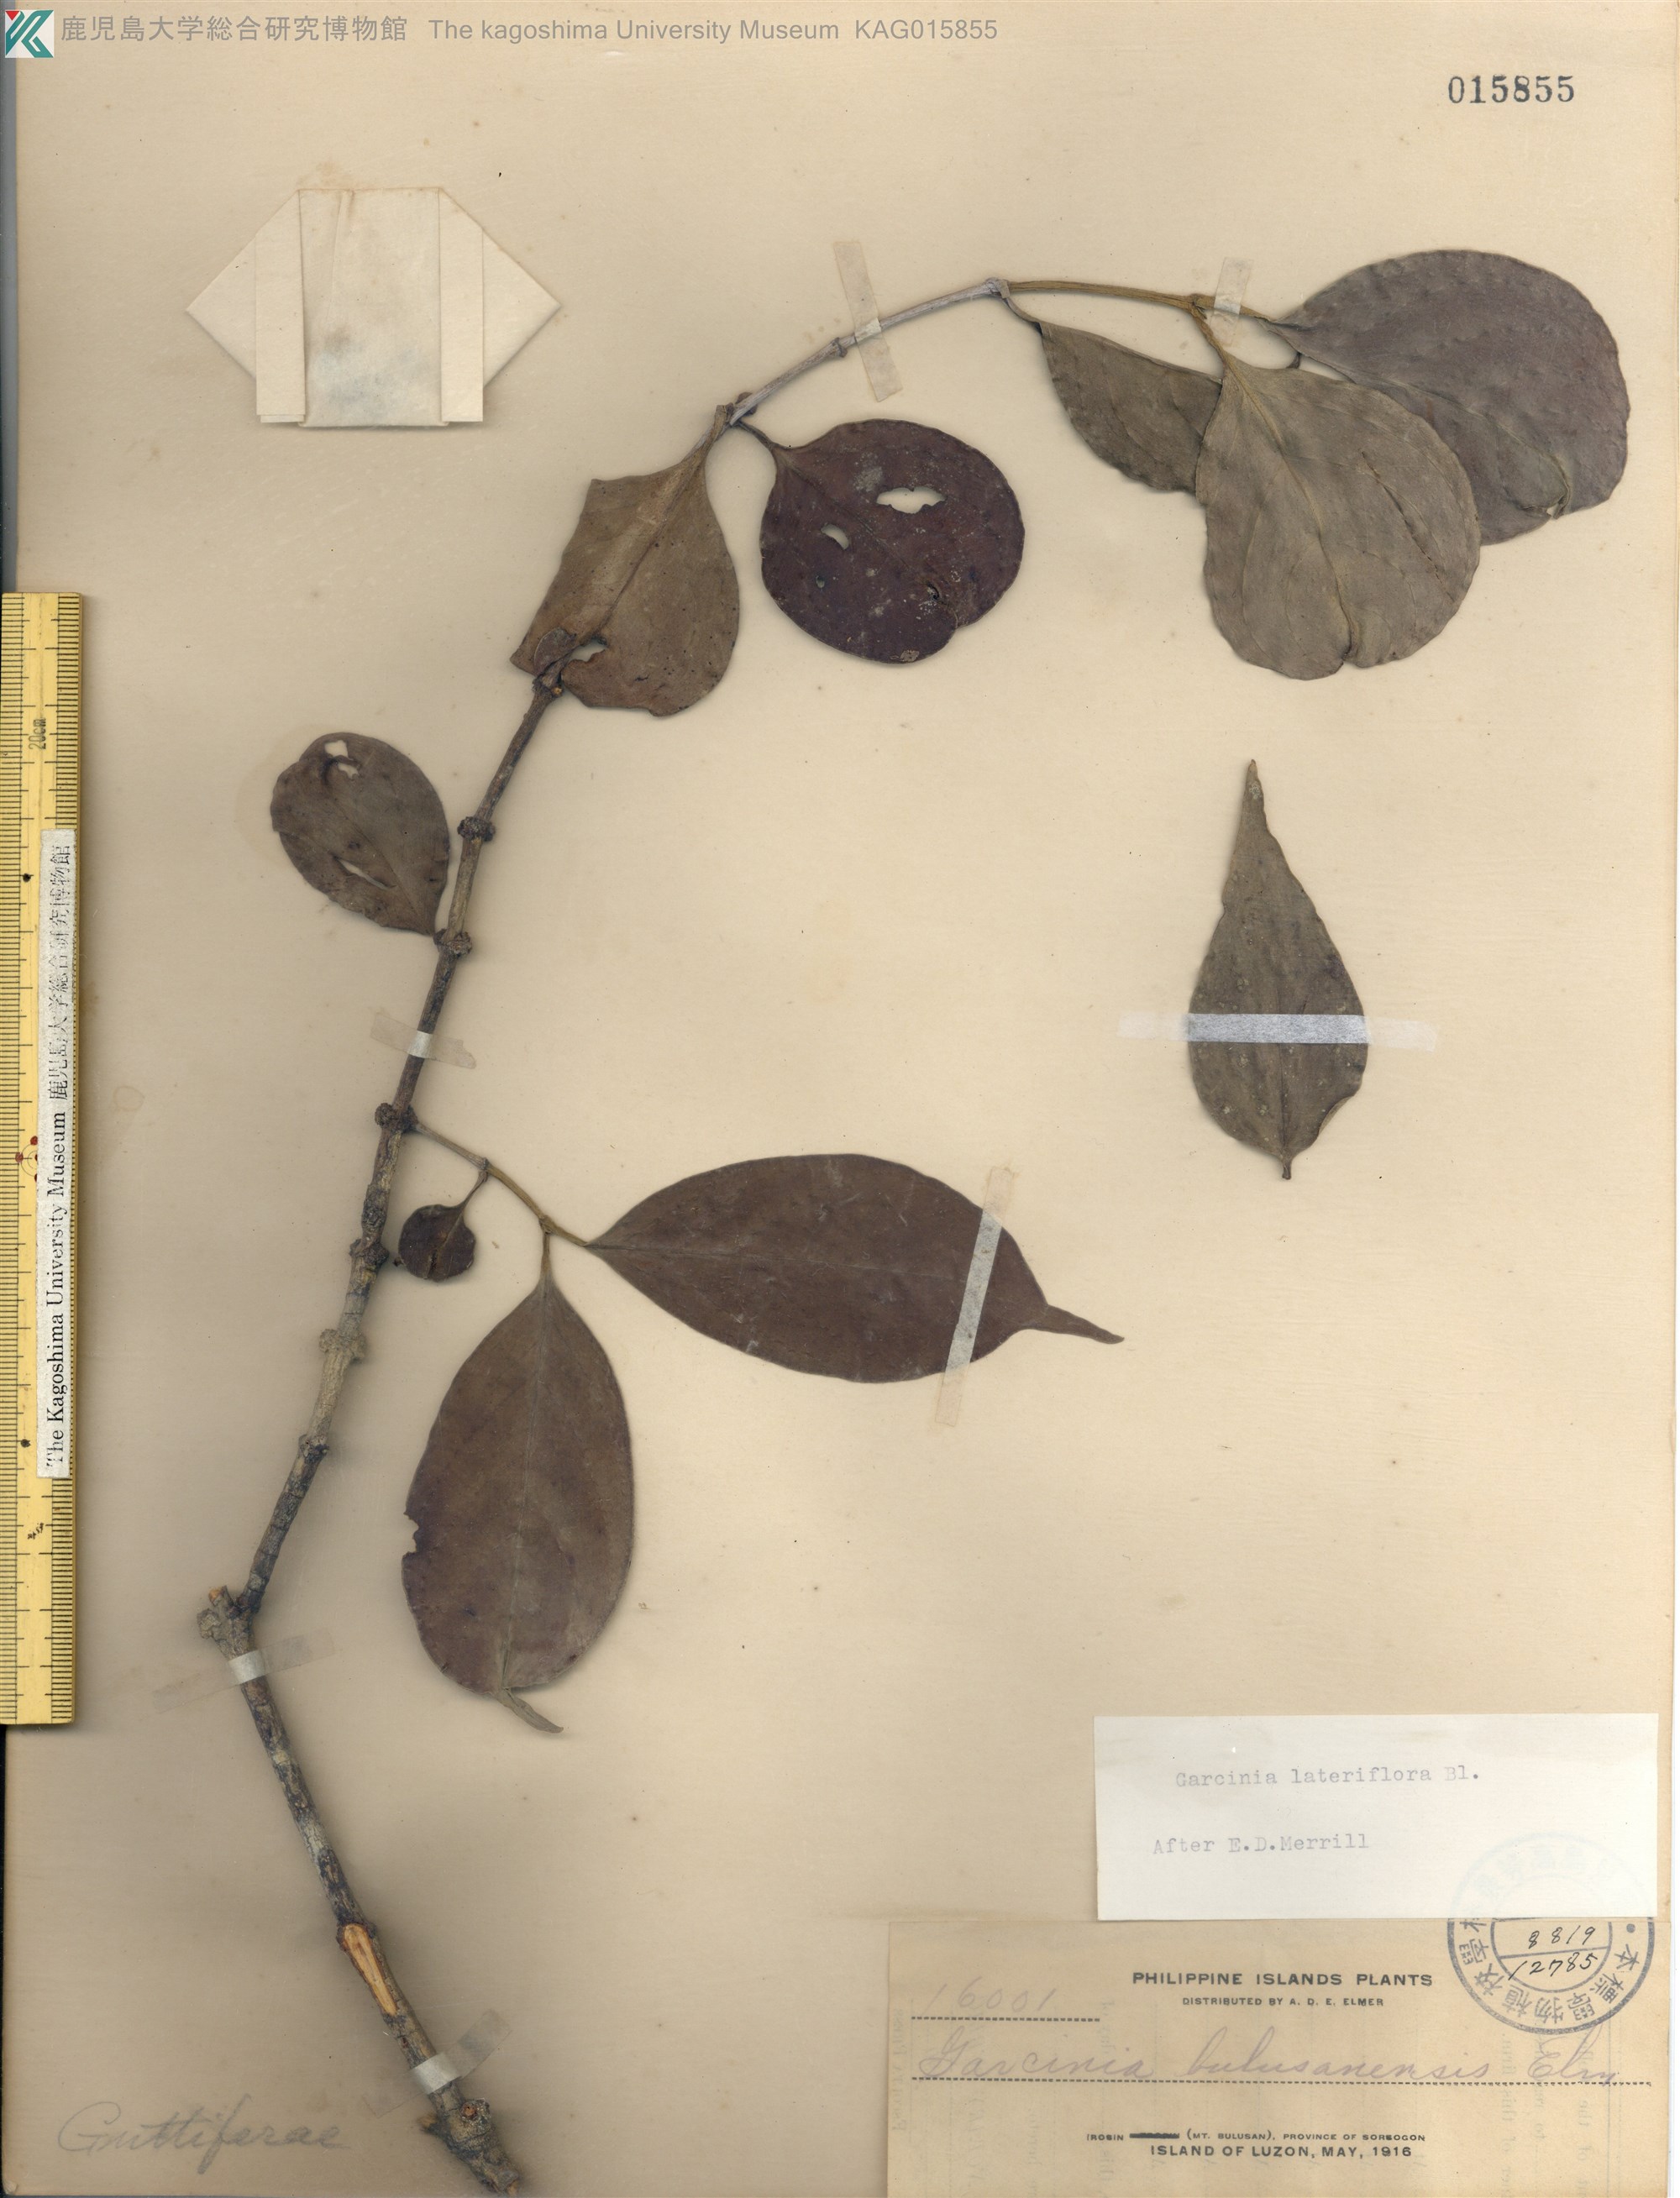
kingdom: Plantae
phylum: Tracheophyta
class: Magnoliopsida
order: Malpighiales
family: Clusiaceae
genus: Garcinia
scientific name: Garcinia lateriflora
